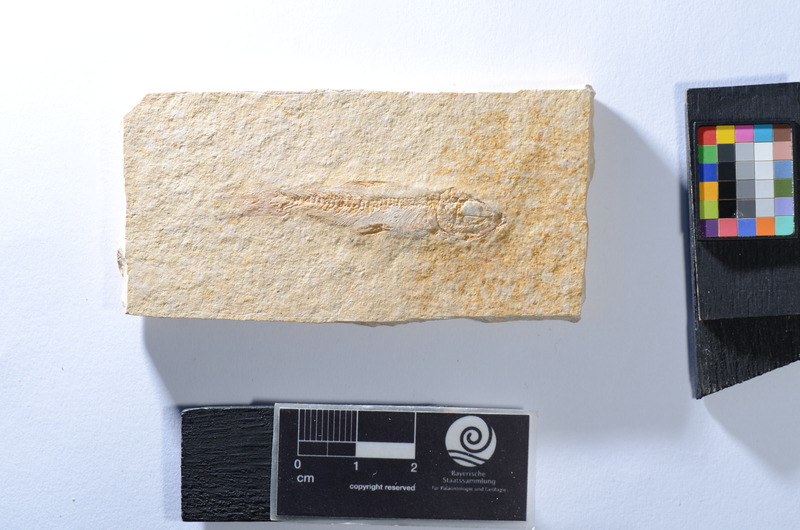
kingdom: Animalia
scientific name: Animalia
